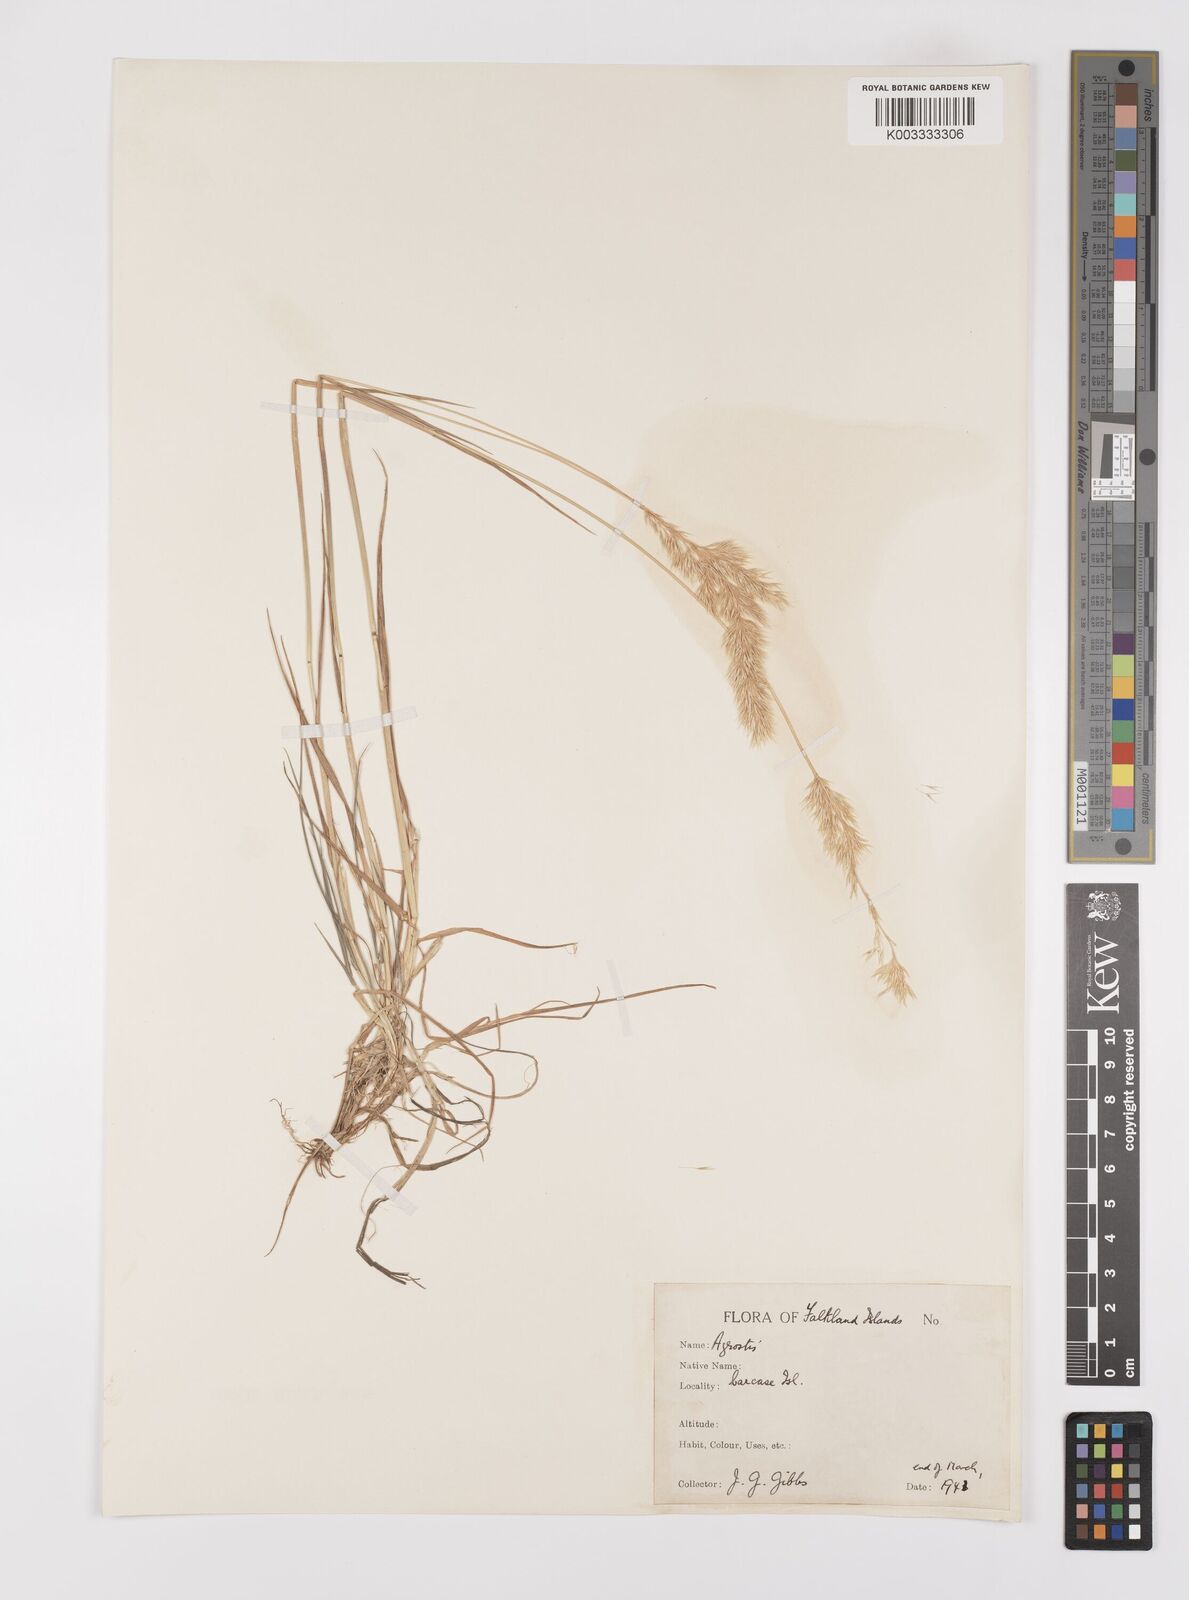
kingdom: Plantae
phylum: Tracheophyta
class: Liliopsida
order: Poales
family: Poaceae
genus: Polypogon
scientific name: Polypogon magellanicus
